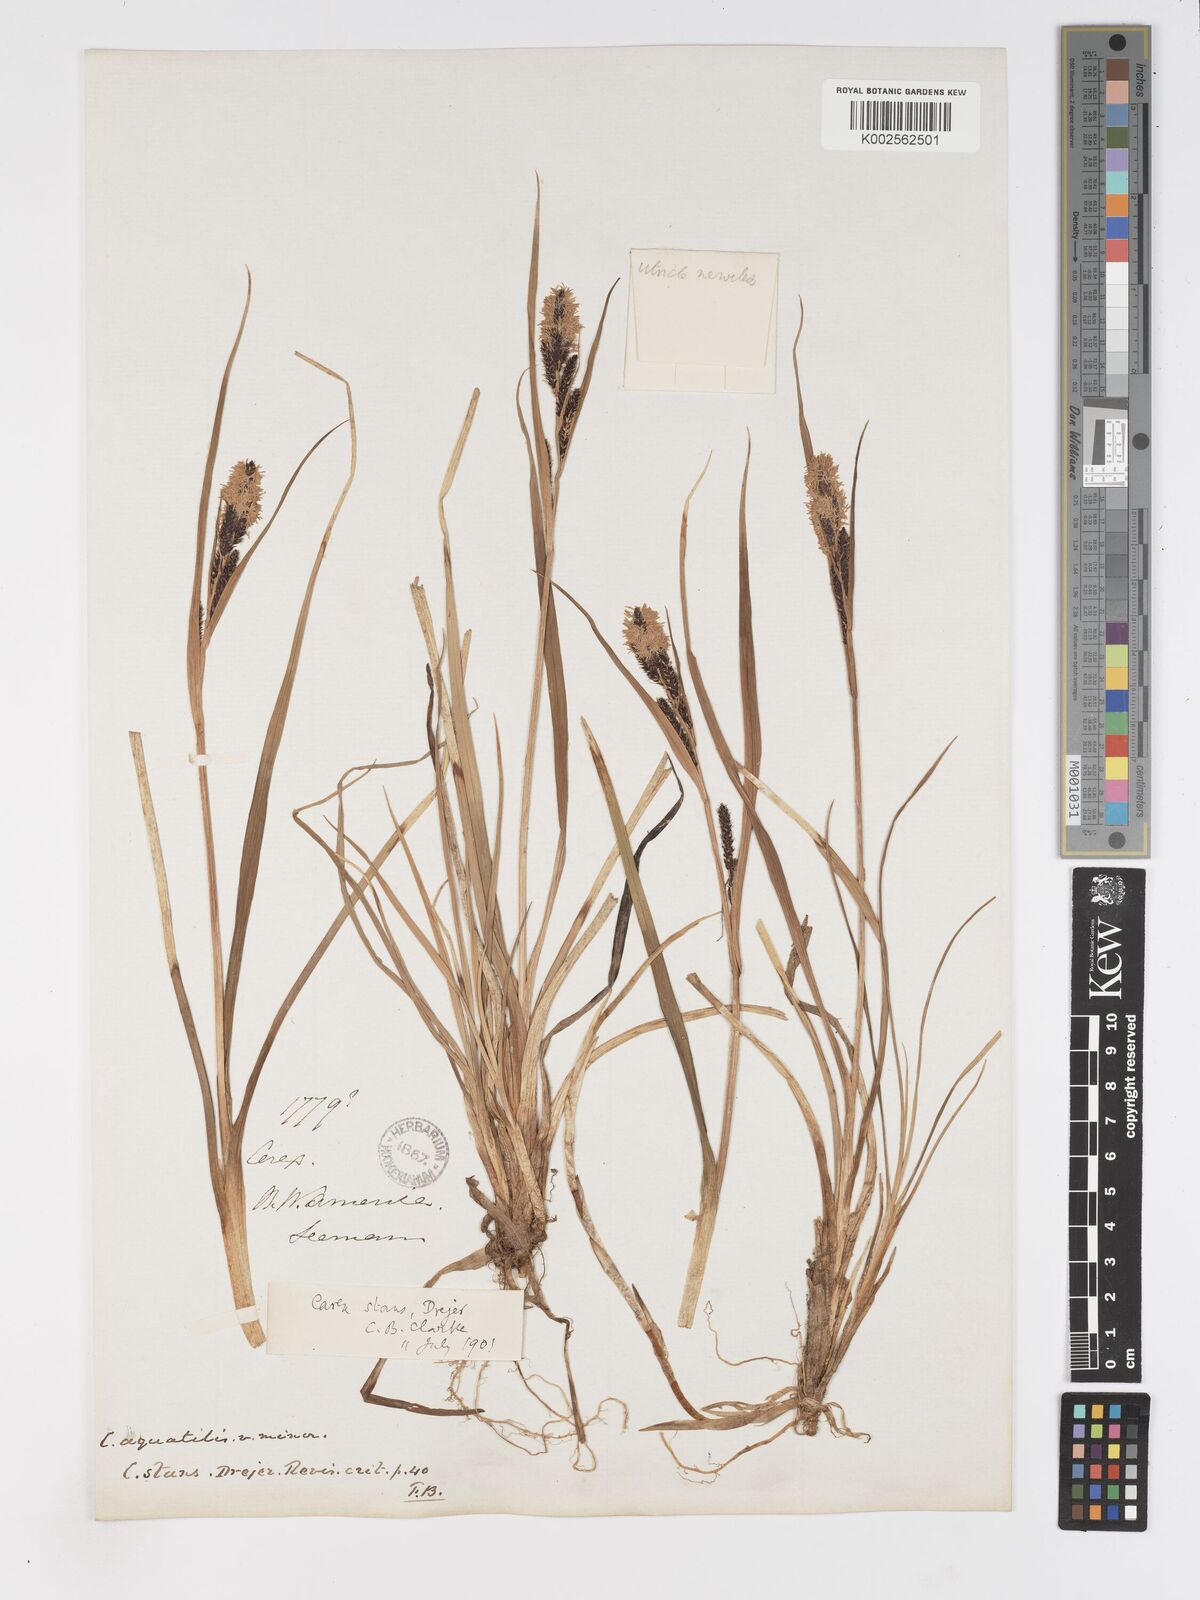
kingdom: Plantae
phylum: Tracheophyta
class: Liliopsida
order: Poales
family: Cyperaceae
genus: Carex
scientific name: Carex
